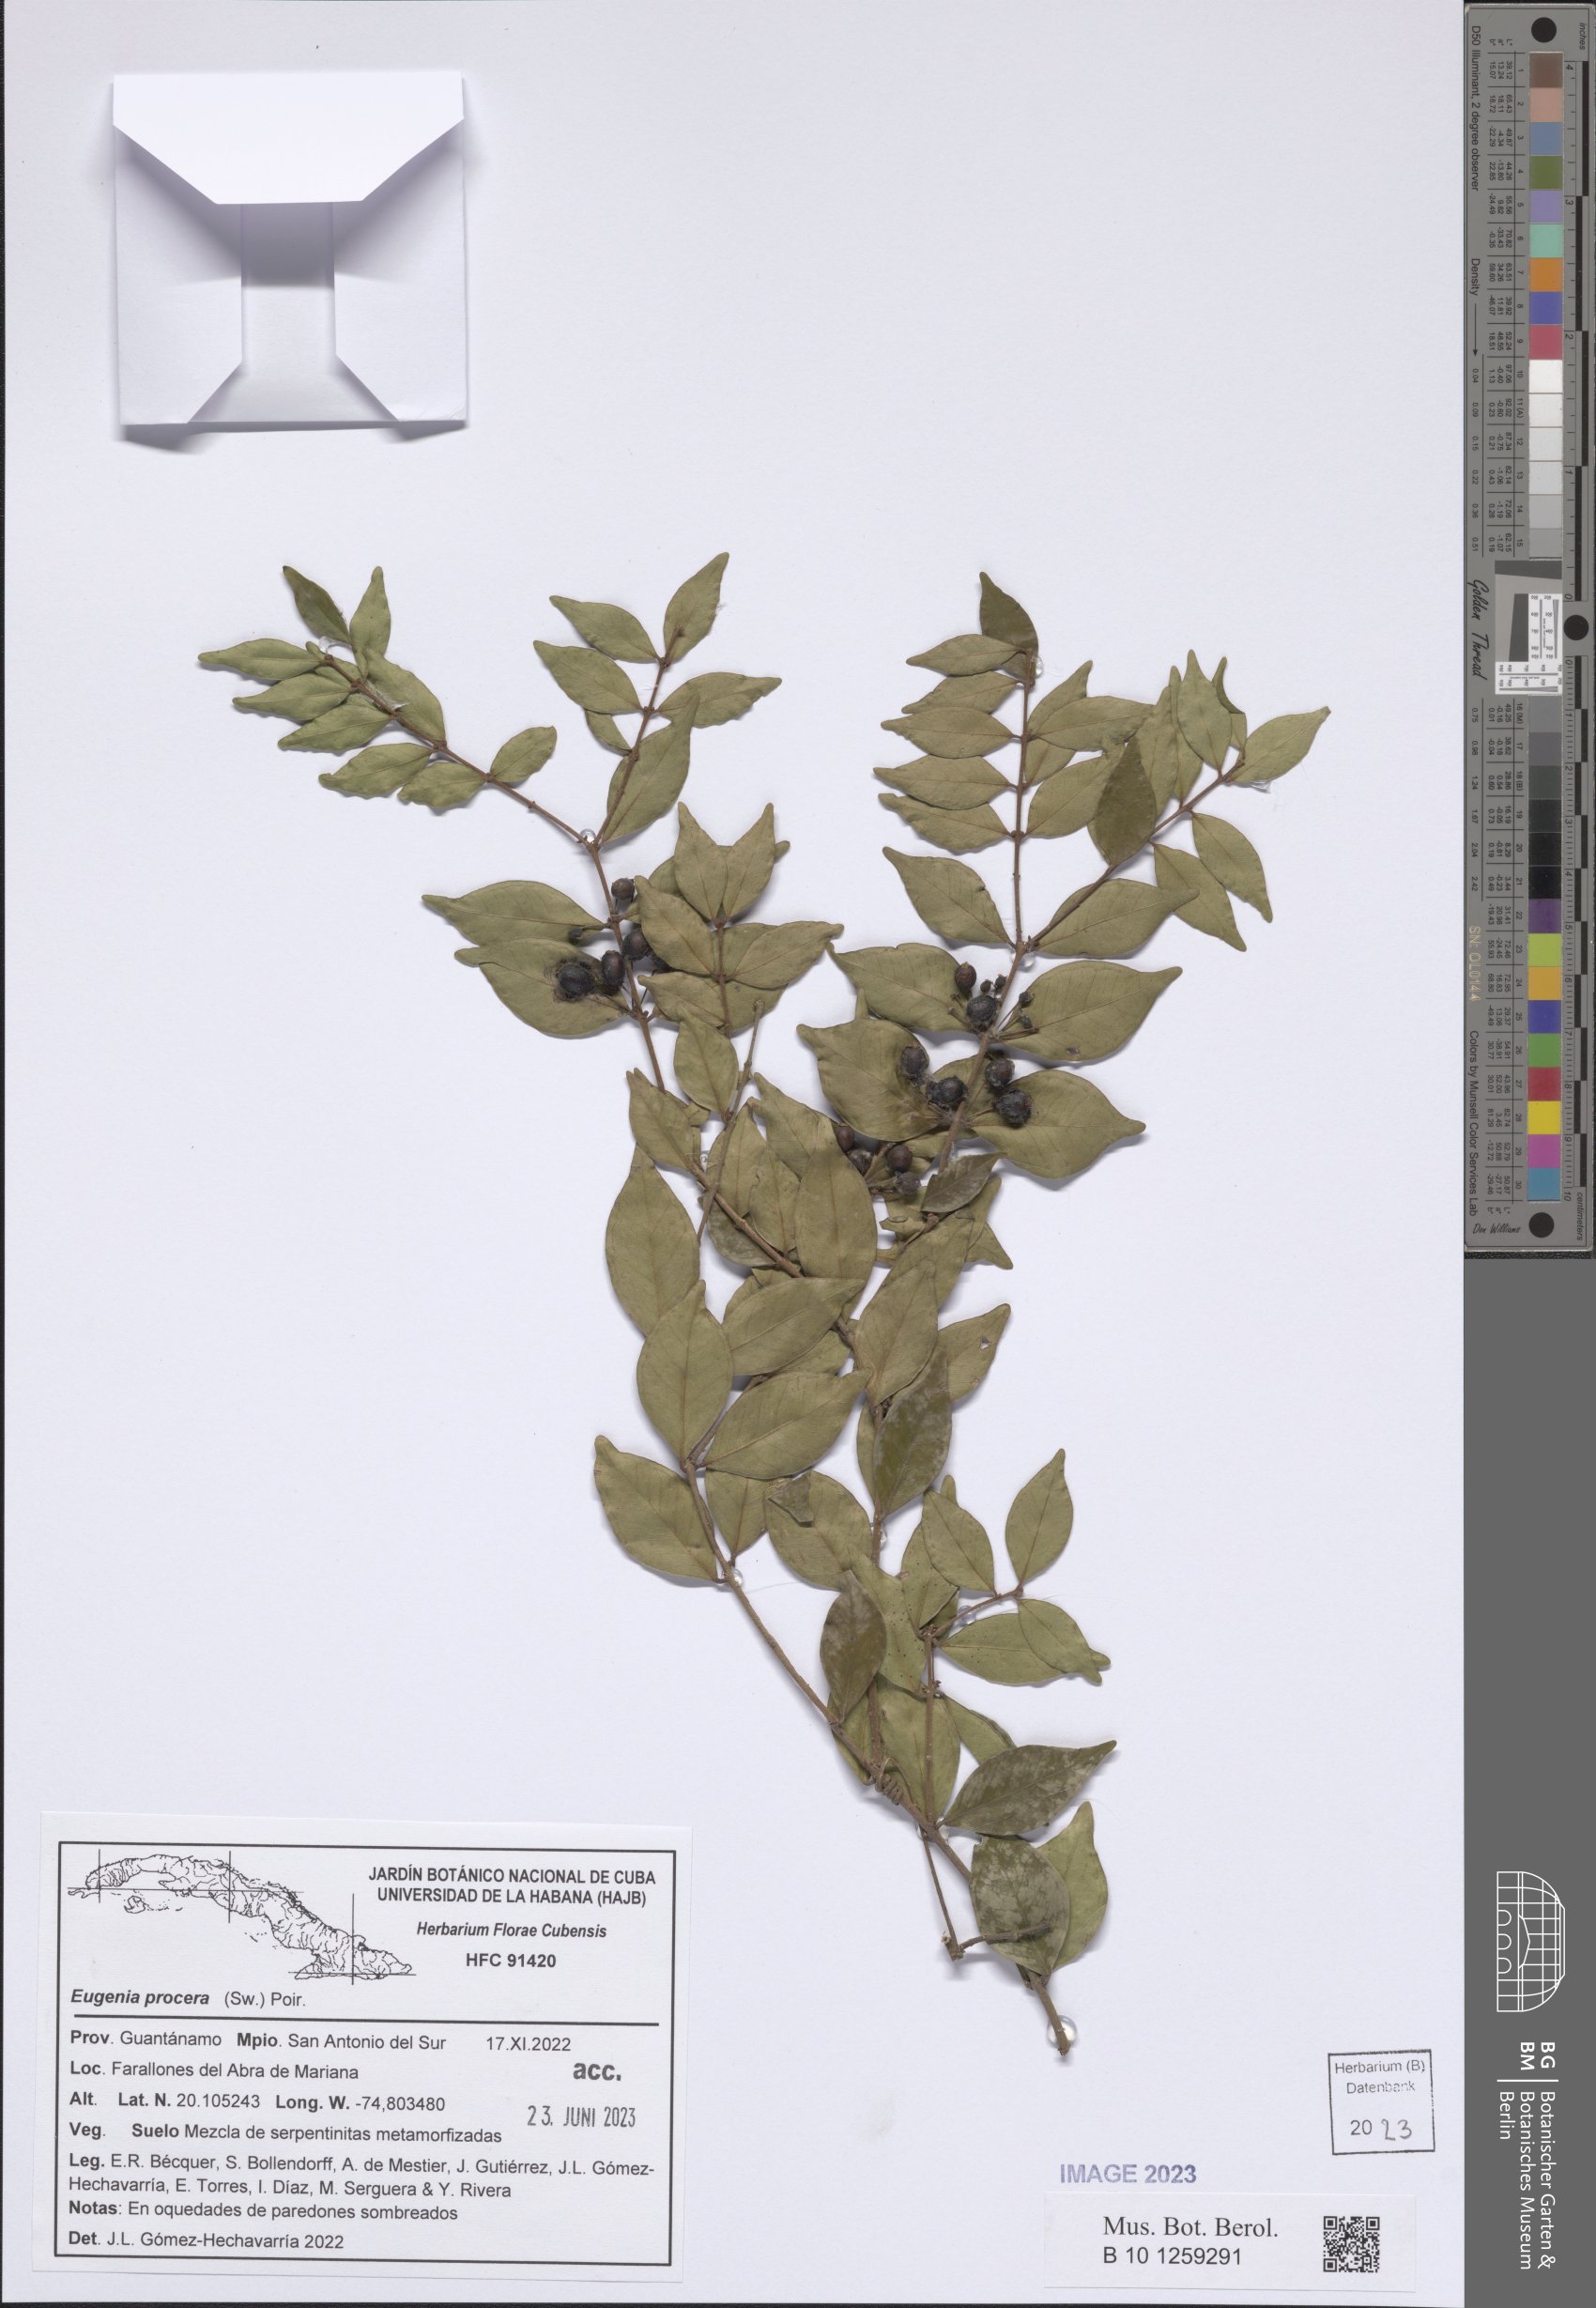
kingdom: Plantae
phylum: Tracheophyta
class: Magnoliopsida
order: Myrtales
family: Myrtaceae
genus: Eugenia
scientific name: Eugenia procera
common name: Bastard blackberry
